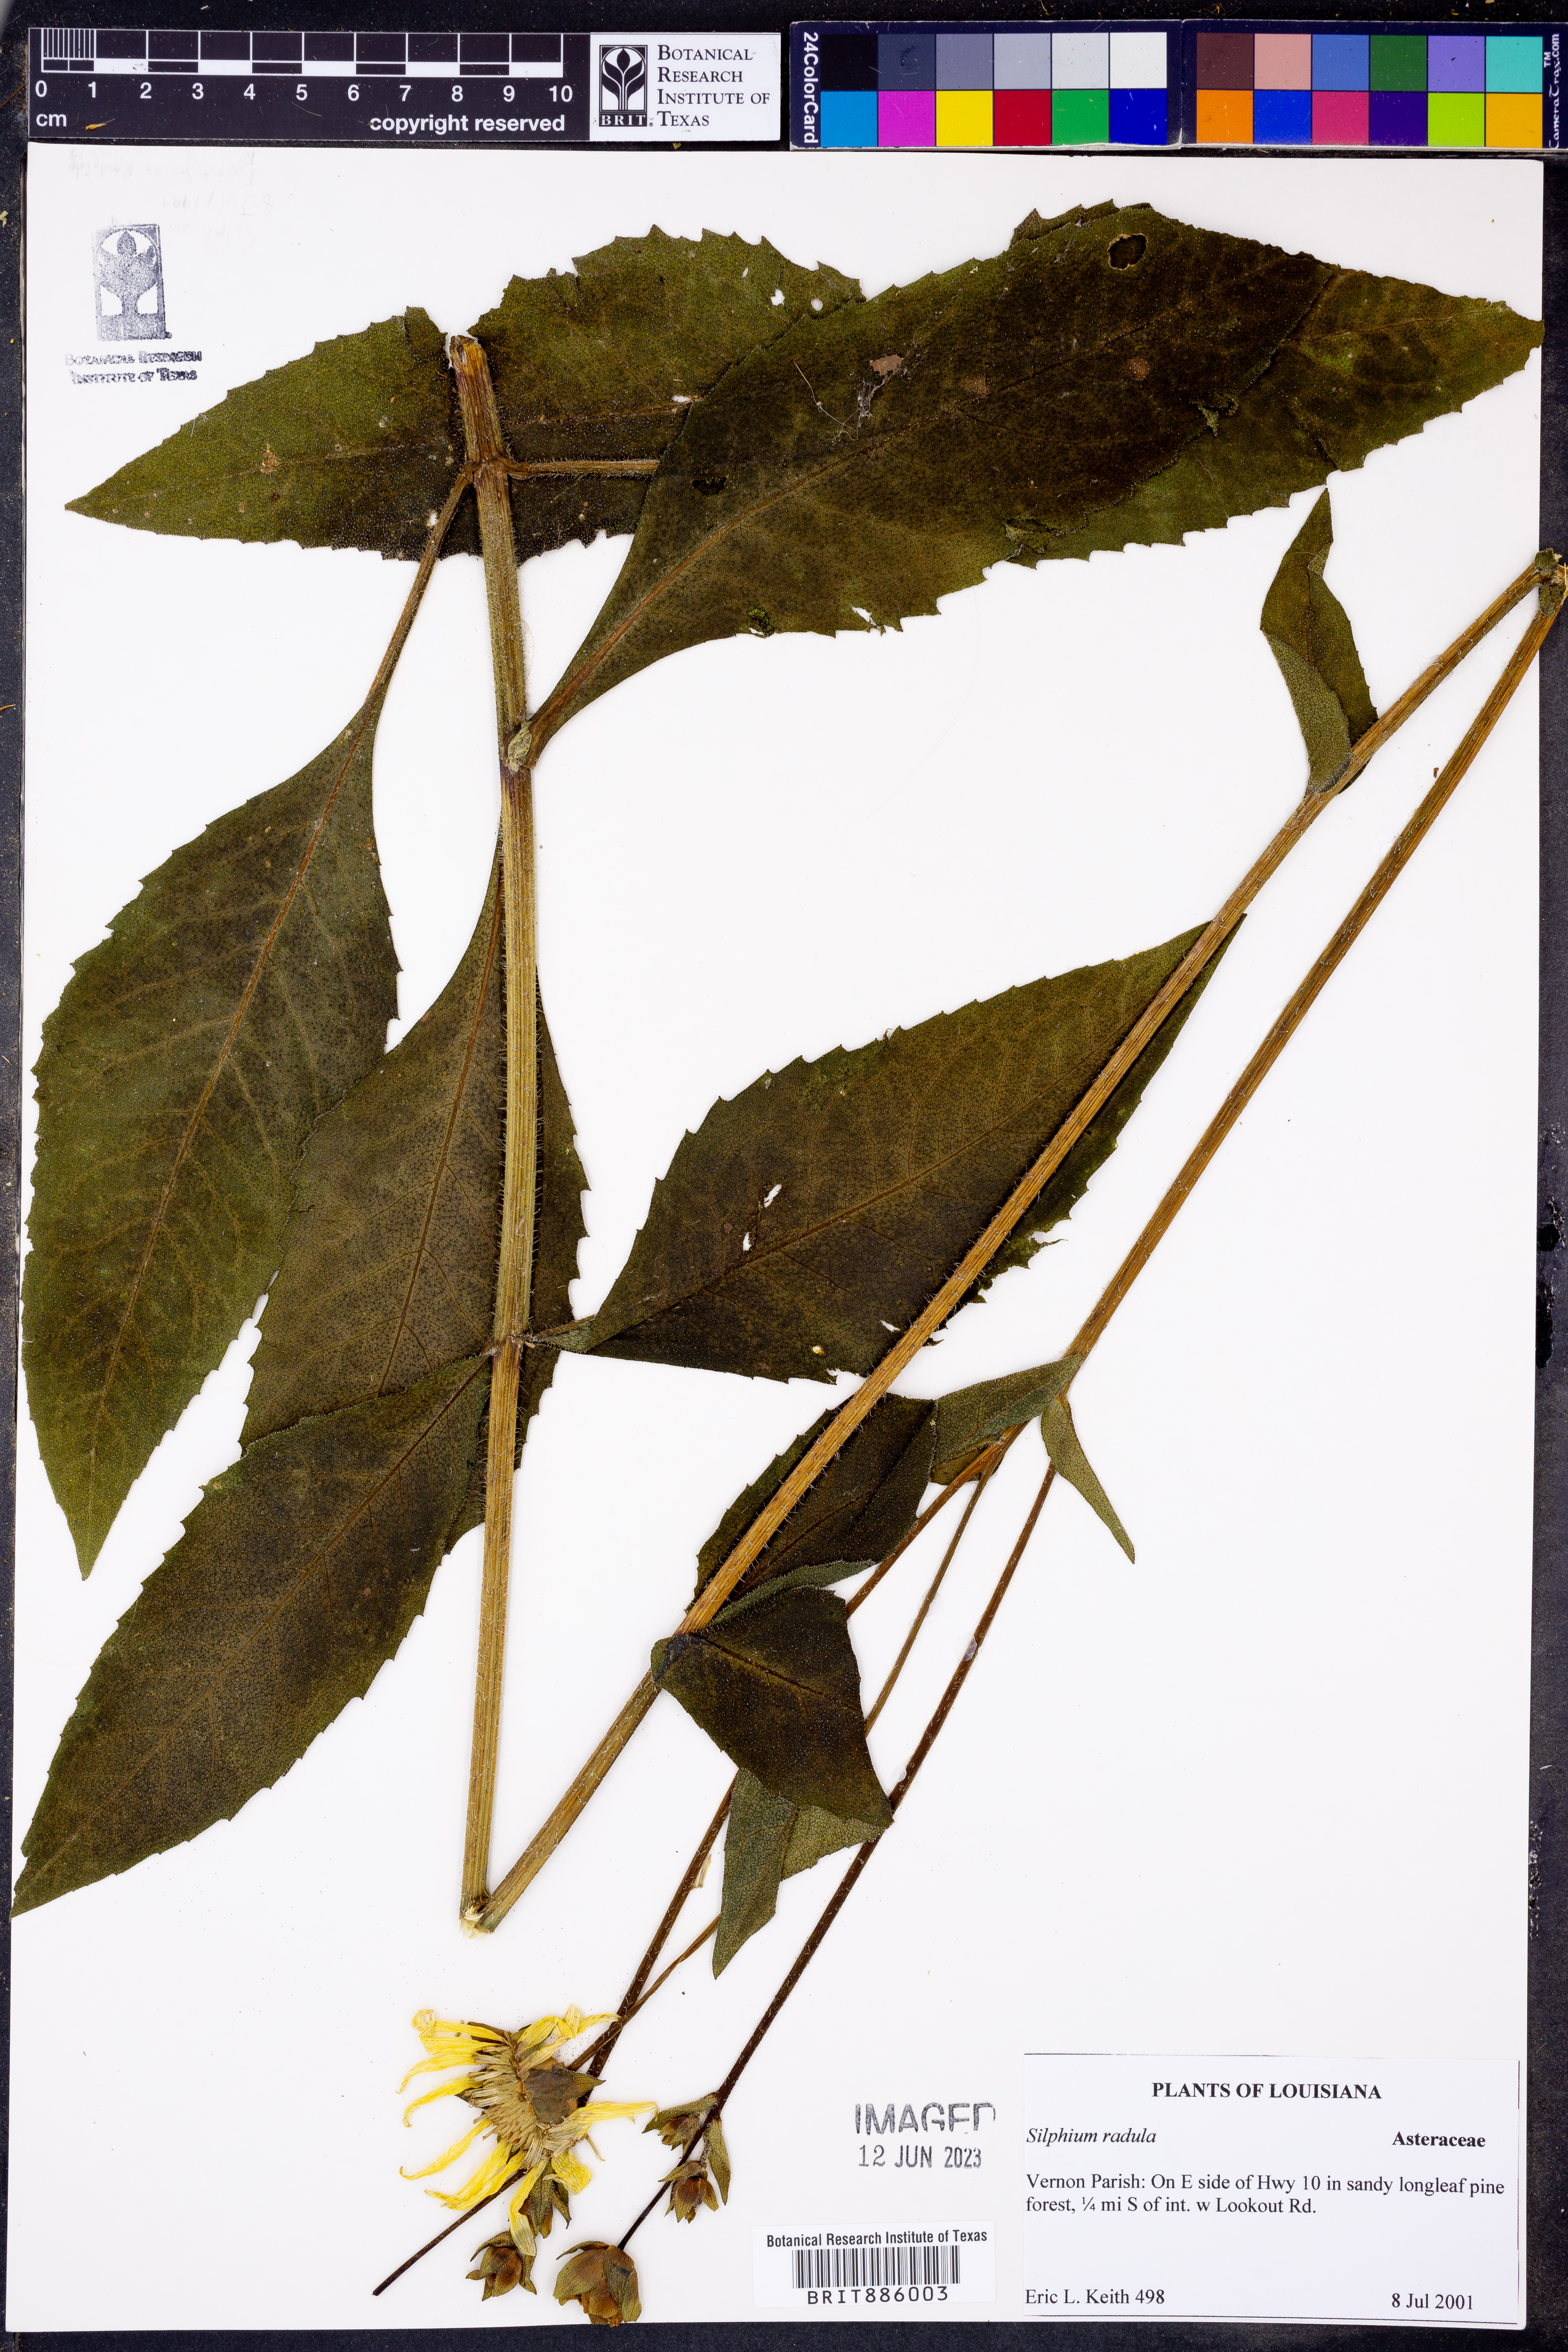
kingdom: Plantae
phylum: Tracheophyta
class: Magnoliopsida
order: Asterales
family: Asteraceae
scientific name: Asteraceae
